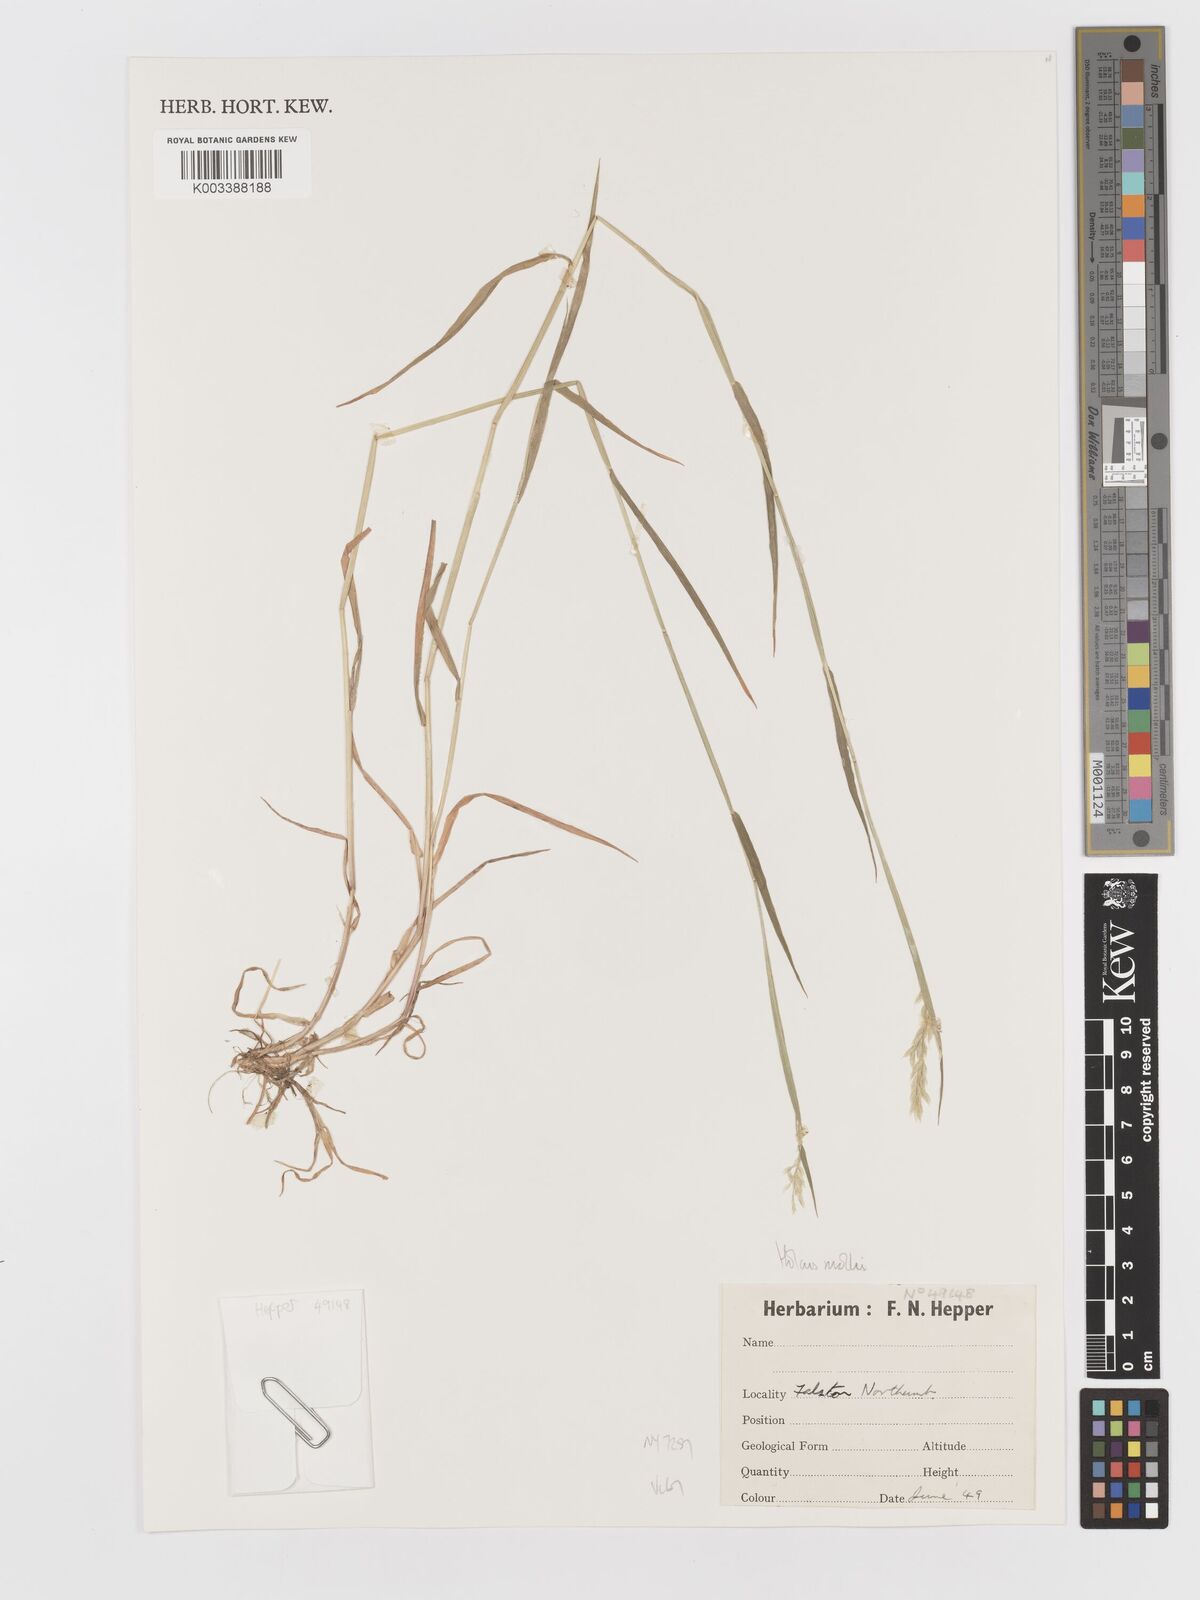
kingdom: Plantae
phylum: Tracheophyta
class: Liliopsida
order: Poales
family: Poaceae
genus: Holcus
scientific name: Holcus mollis
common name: Creeping velvetgrass
